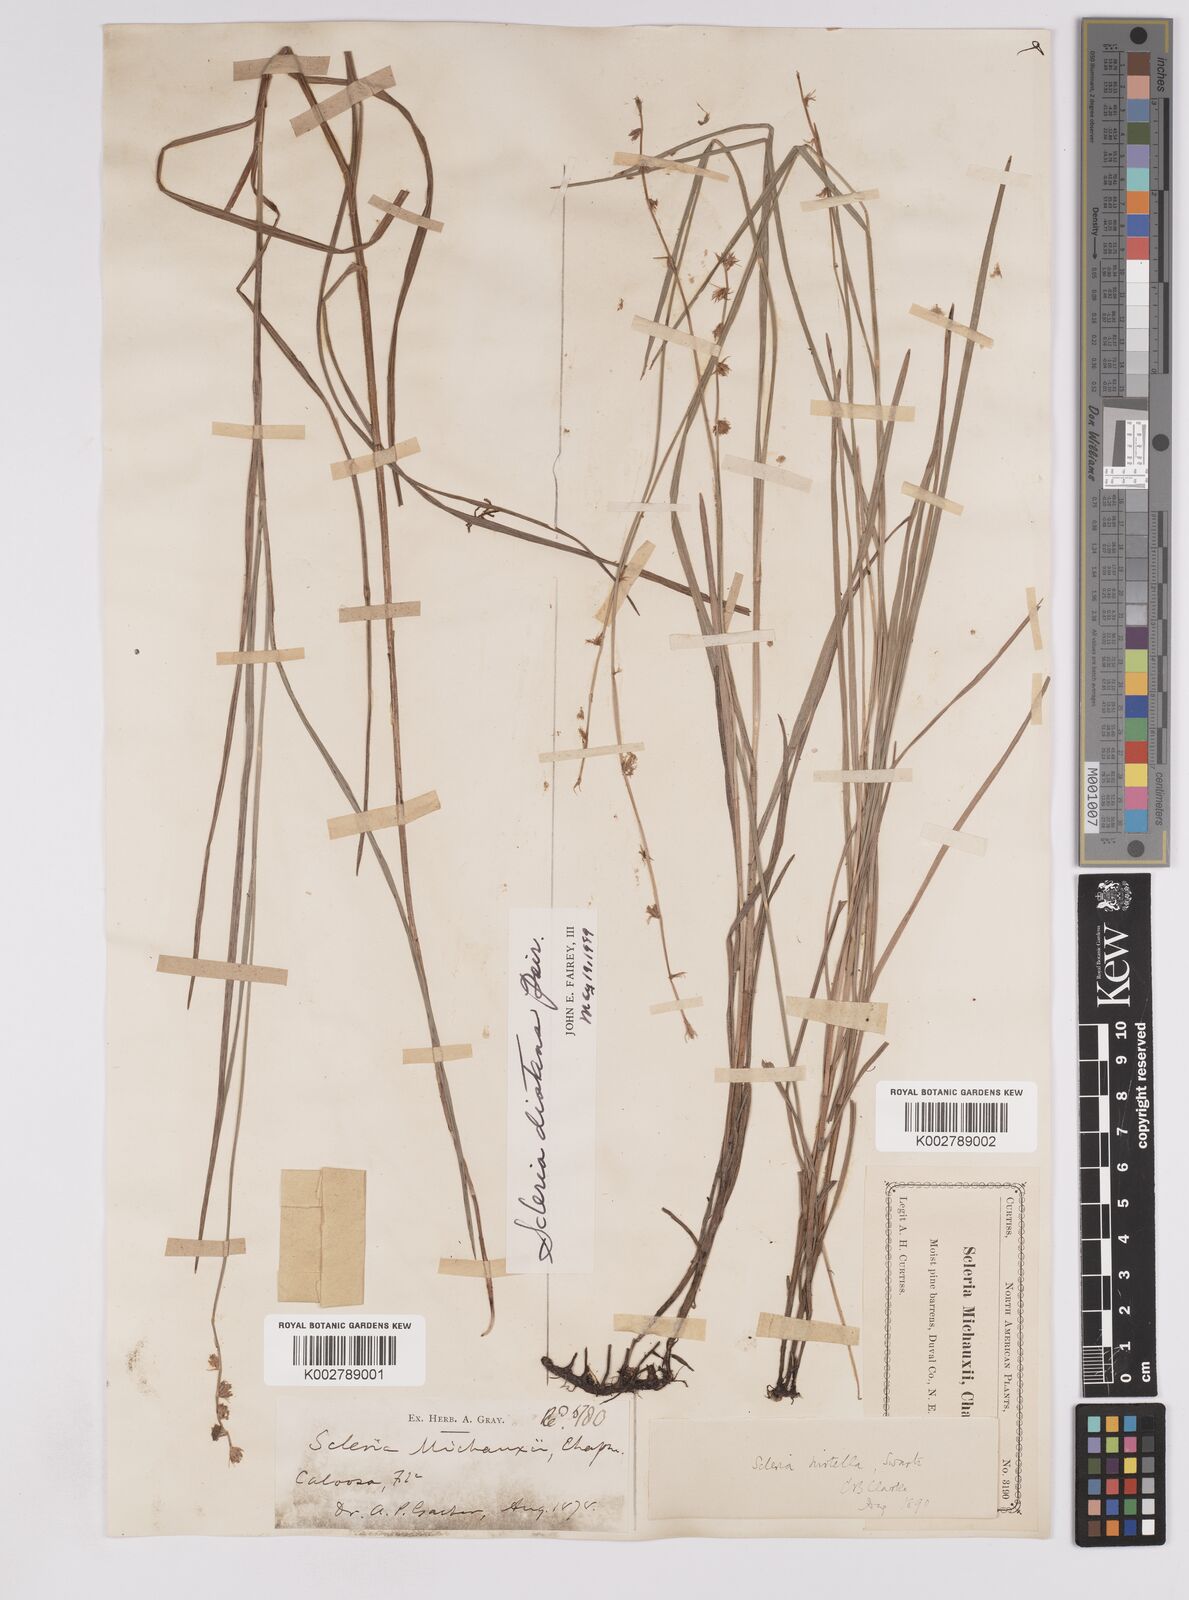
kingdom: Plantae
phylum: Tracheophyta
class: Liliopsida
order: Poales
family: Cyperaceae
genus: Scleria
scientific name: Scleria distans
